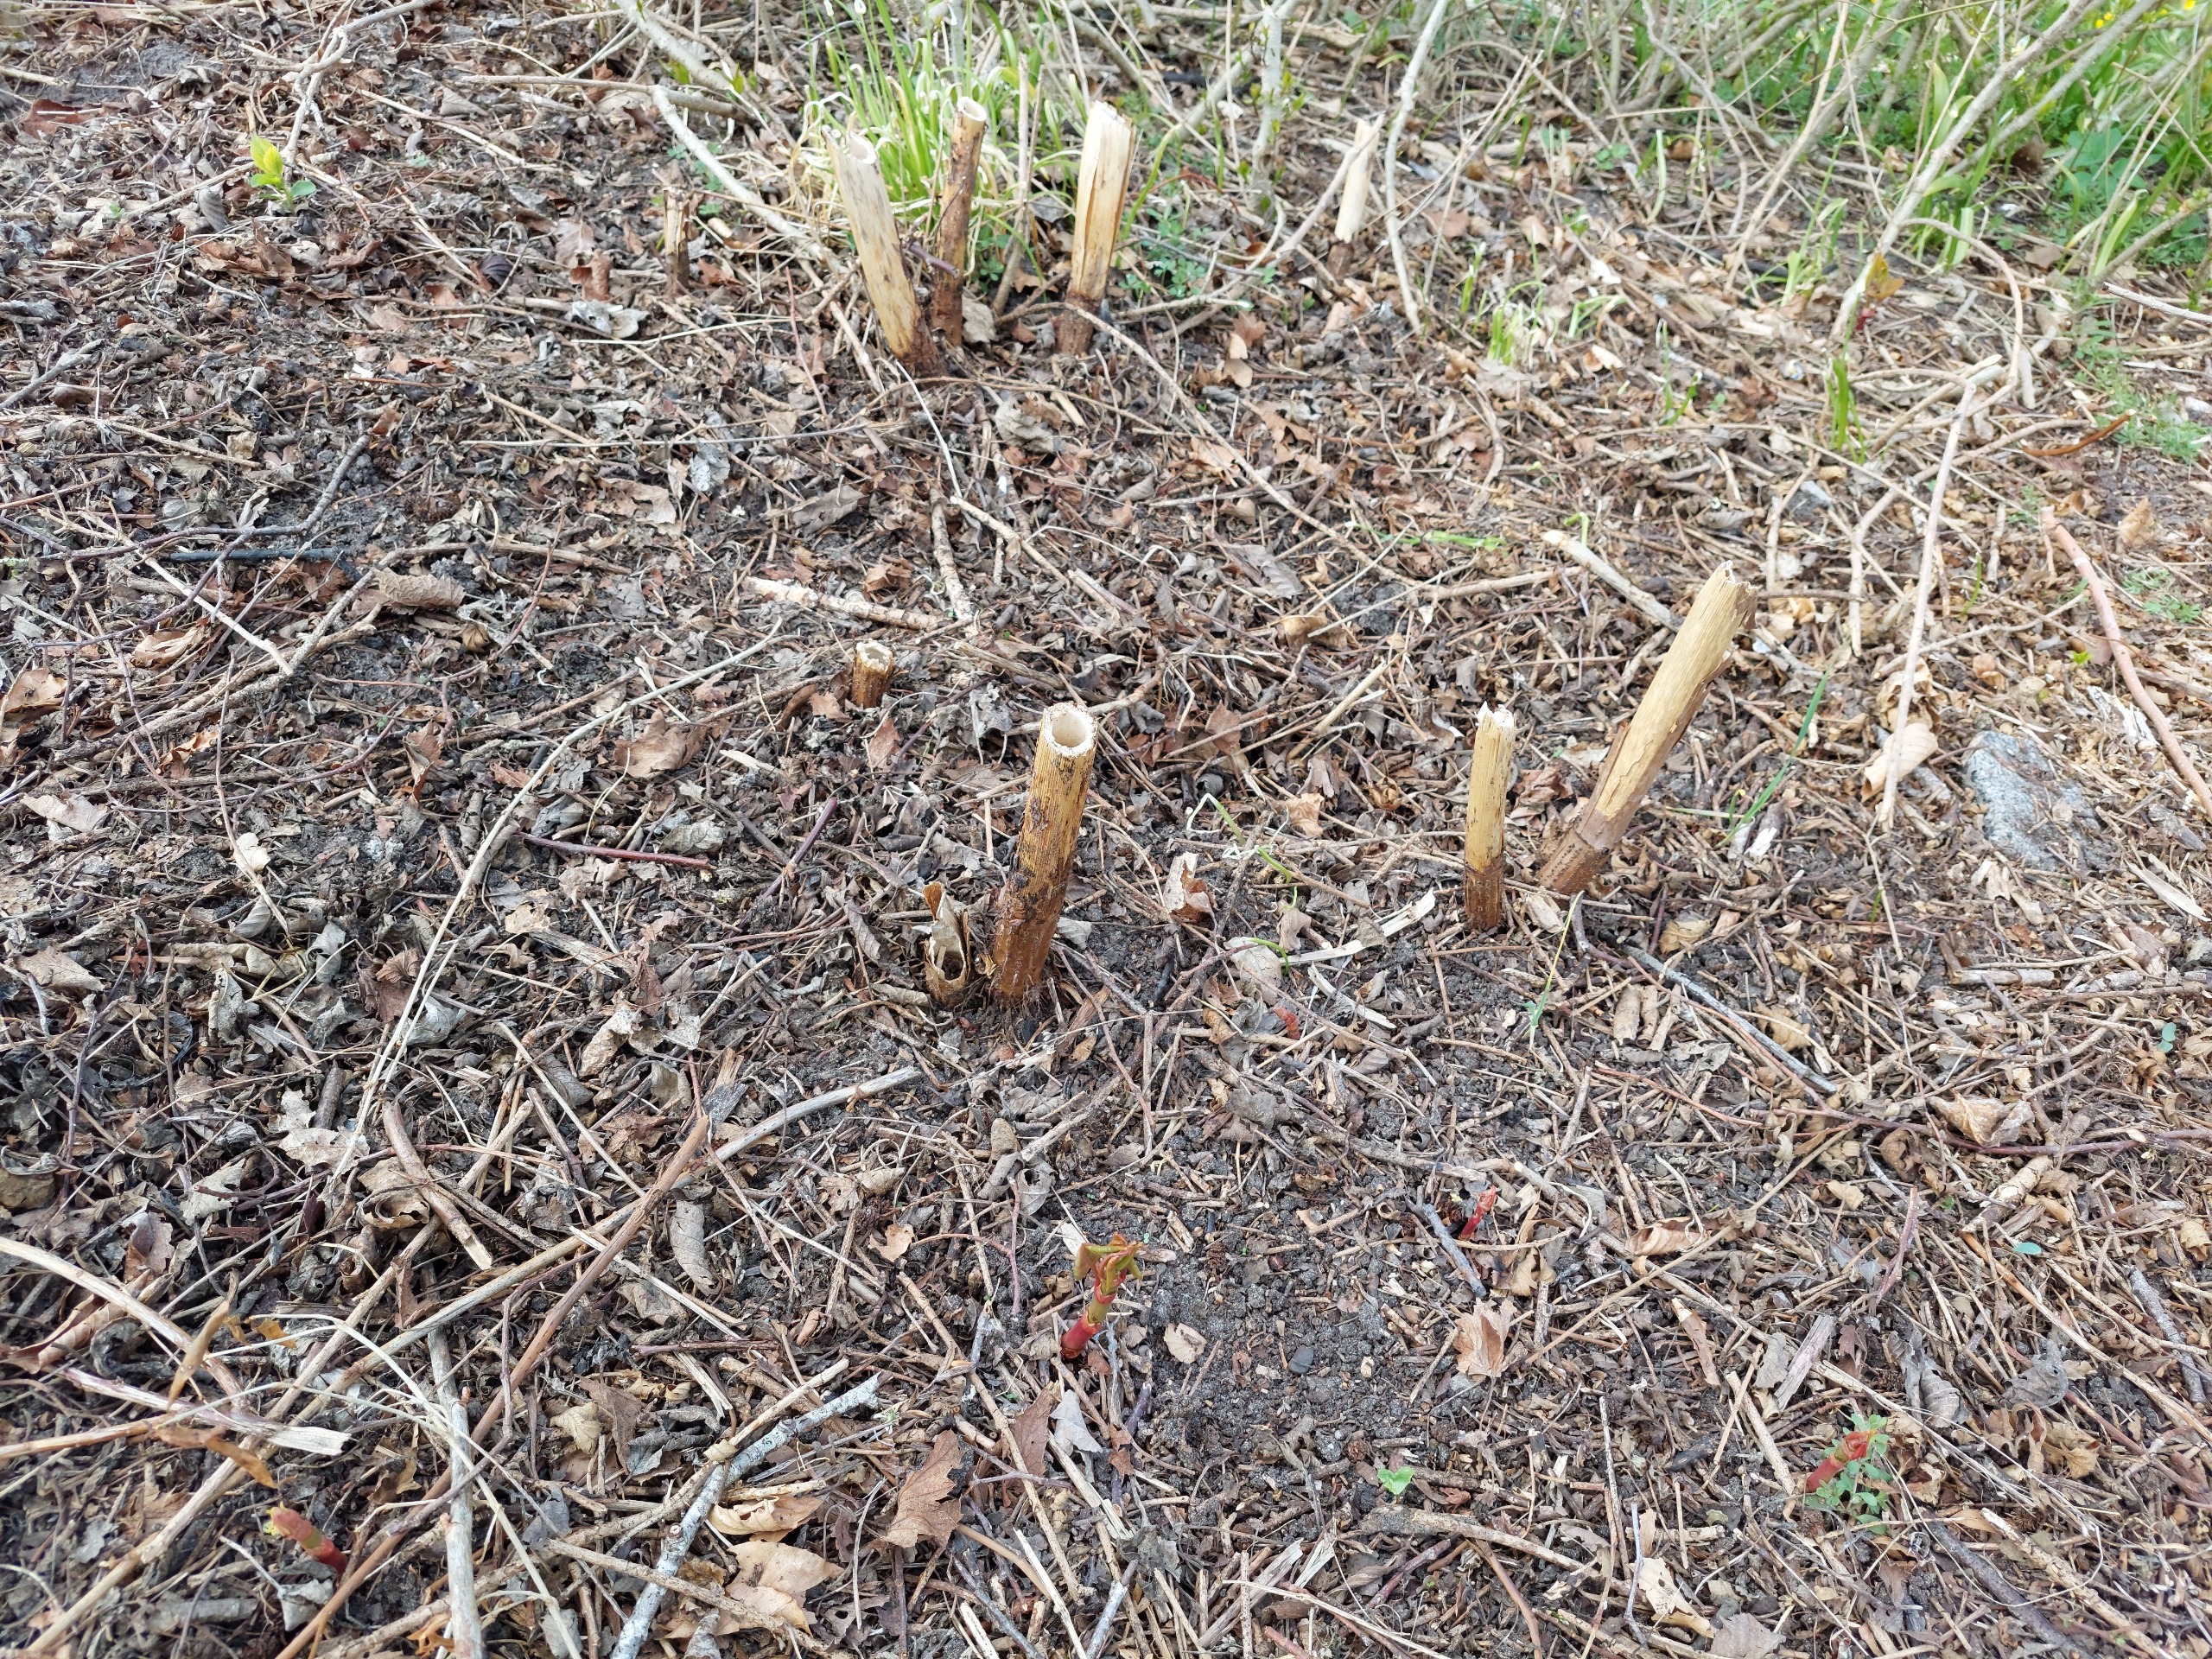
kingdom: Plantae
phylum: Tracheophyta
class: Magnoliopsida
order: Caryophyllales
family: Polygonaceae
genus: Reynoutria
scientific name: Reynoutria
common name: Pileurt (Reynoutria-slægten)
